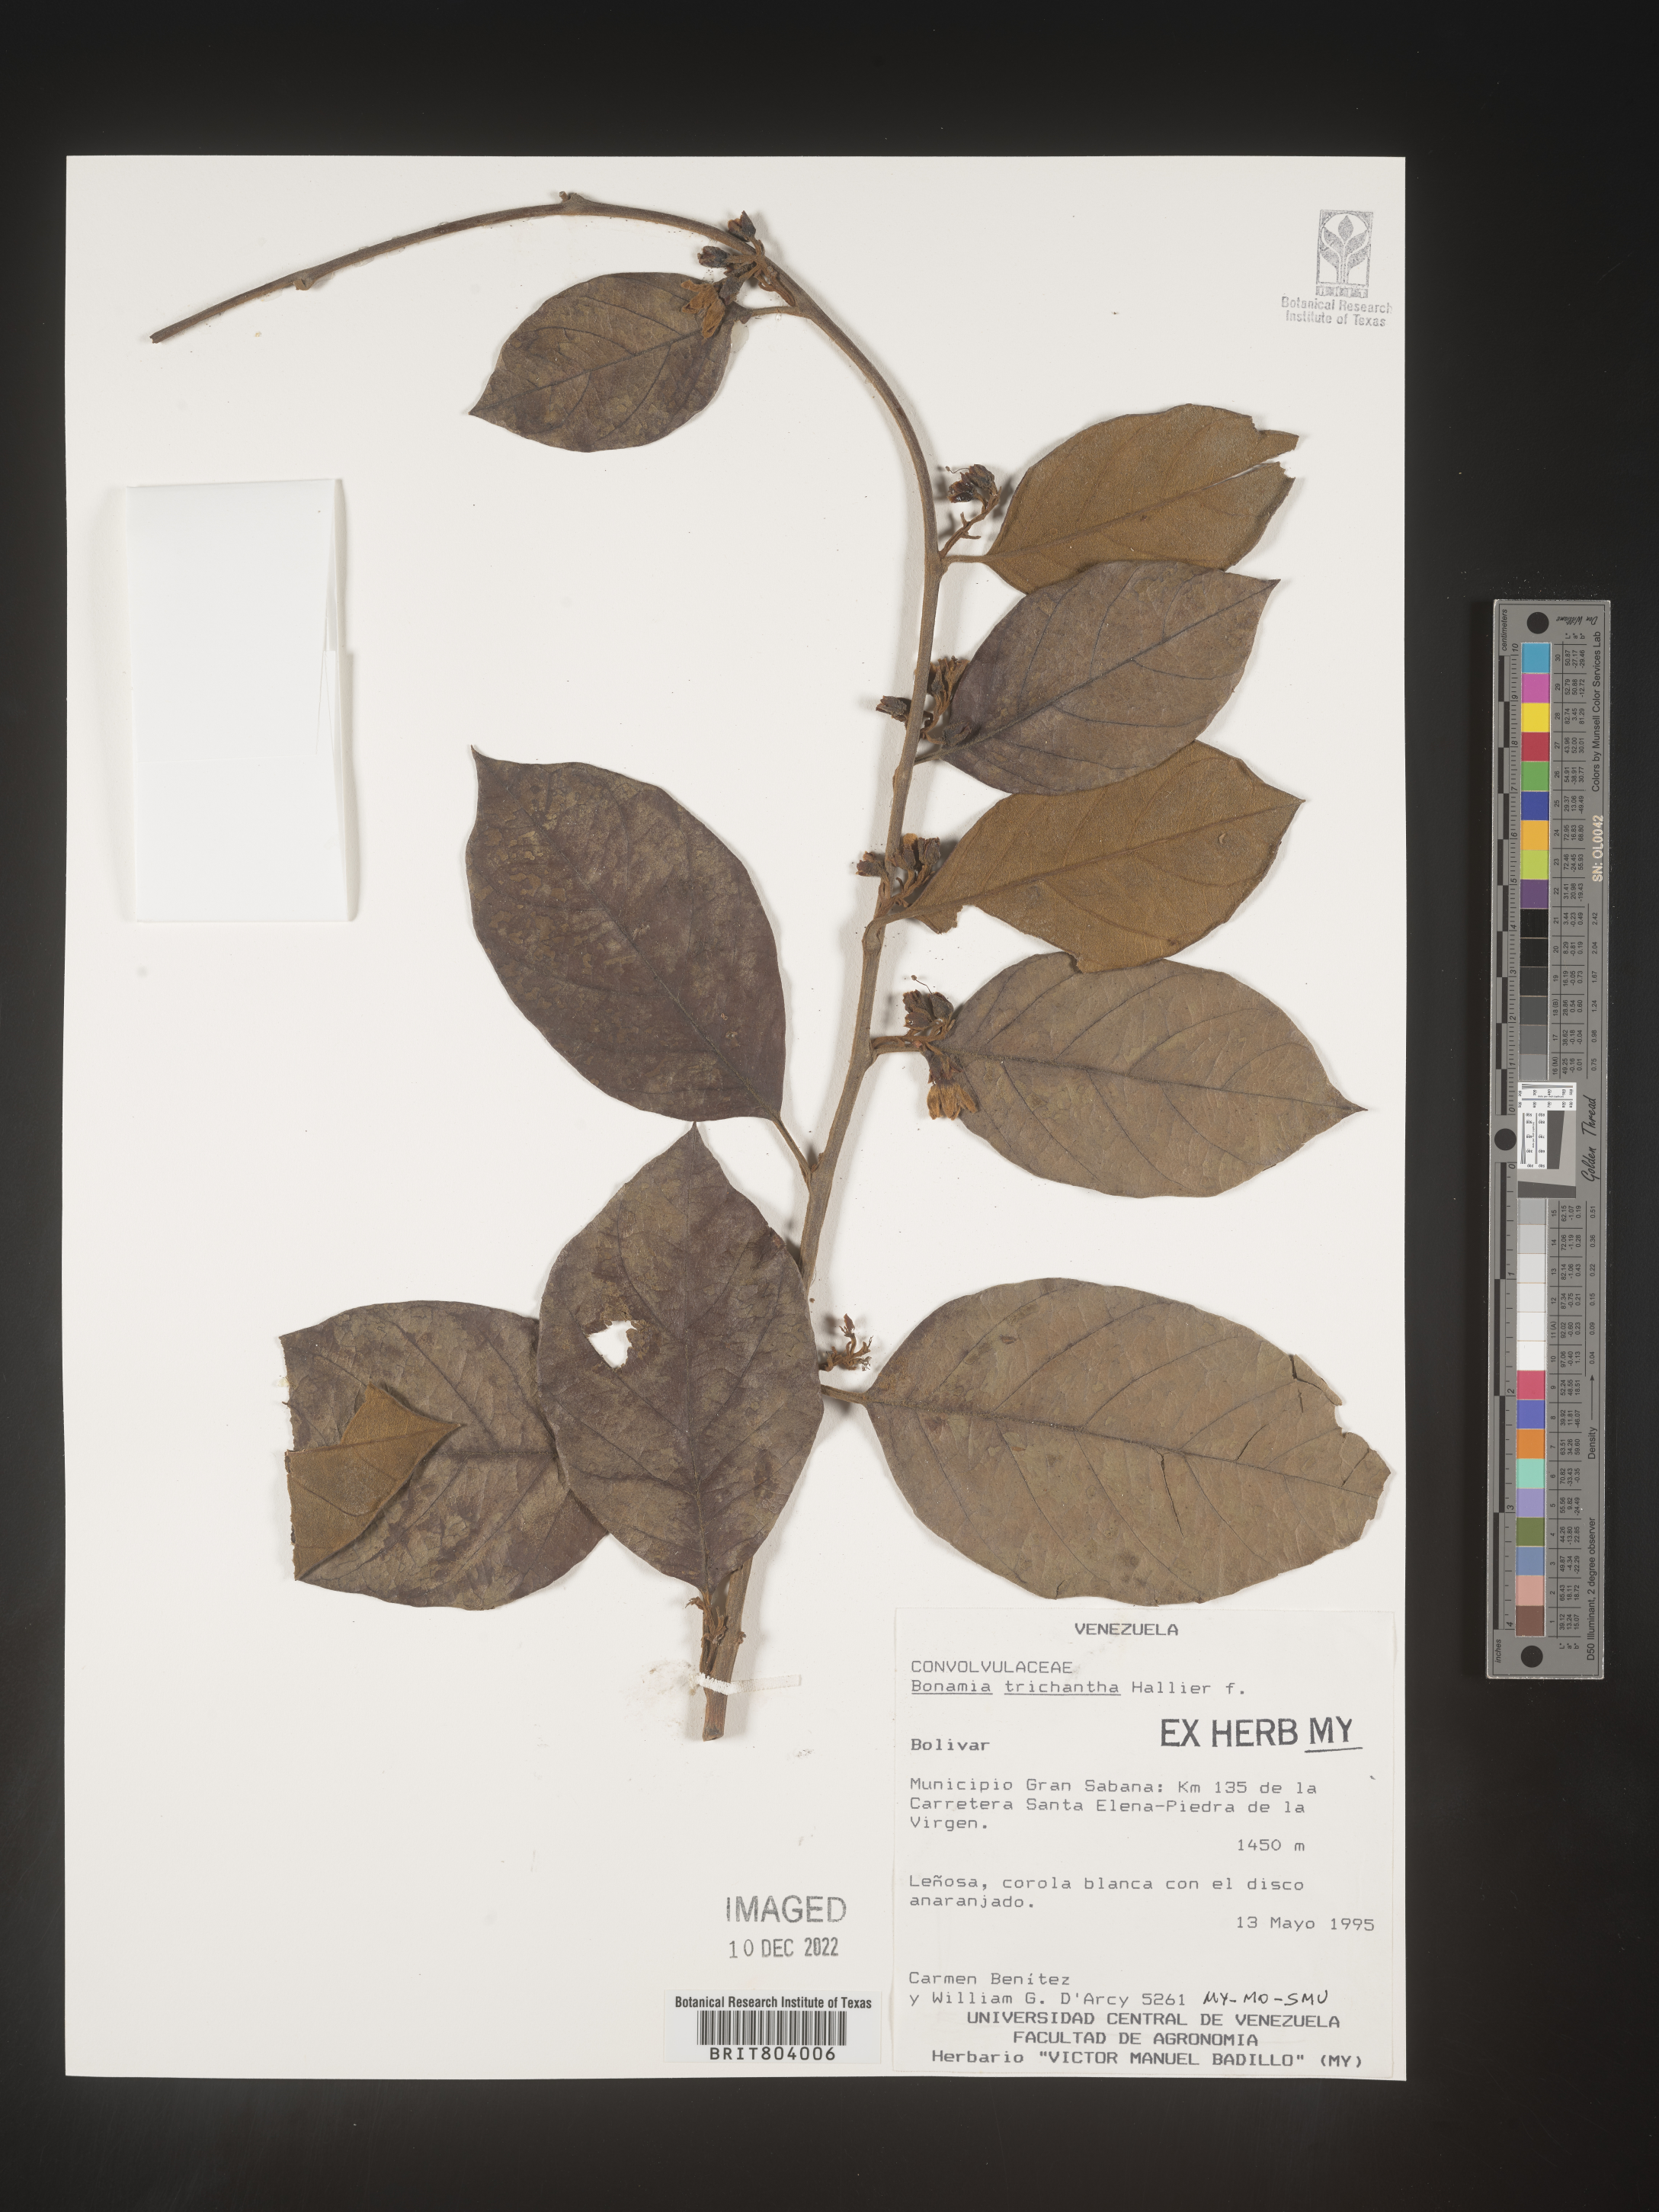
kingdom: Plantae
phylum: Tracheophyta
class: Magnoliopsida
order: Solanales
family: Convolvulaceae
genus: Bonamia
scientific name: Bonamia
